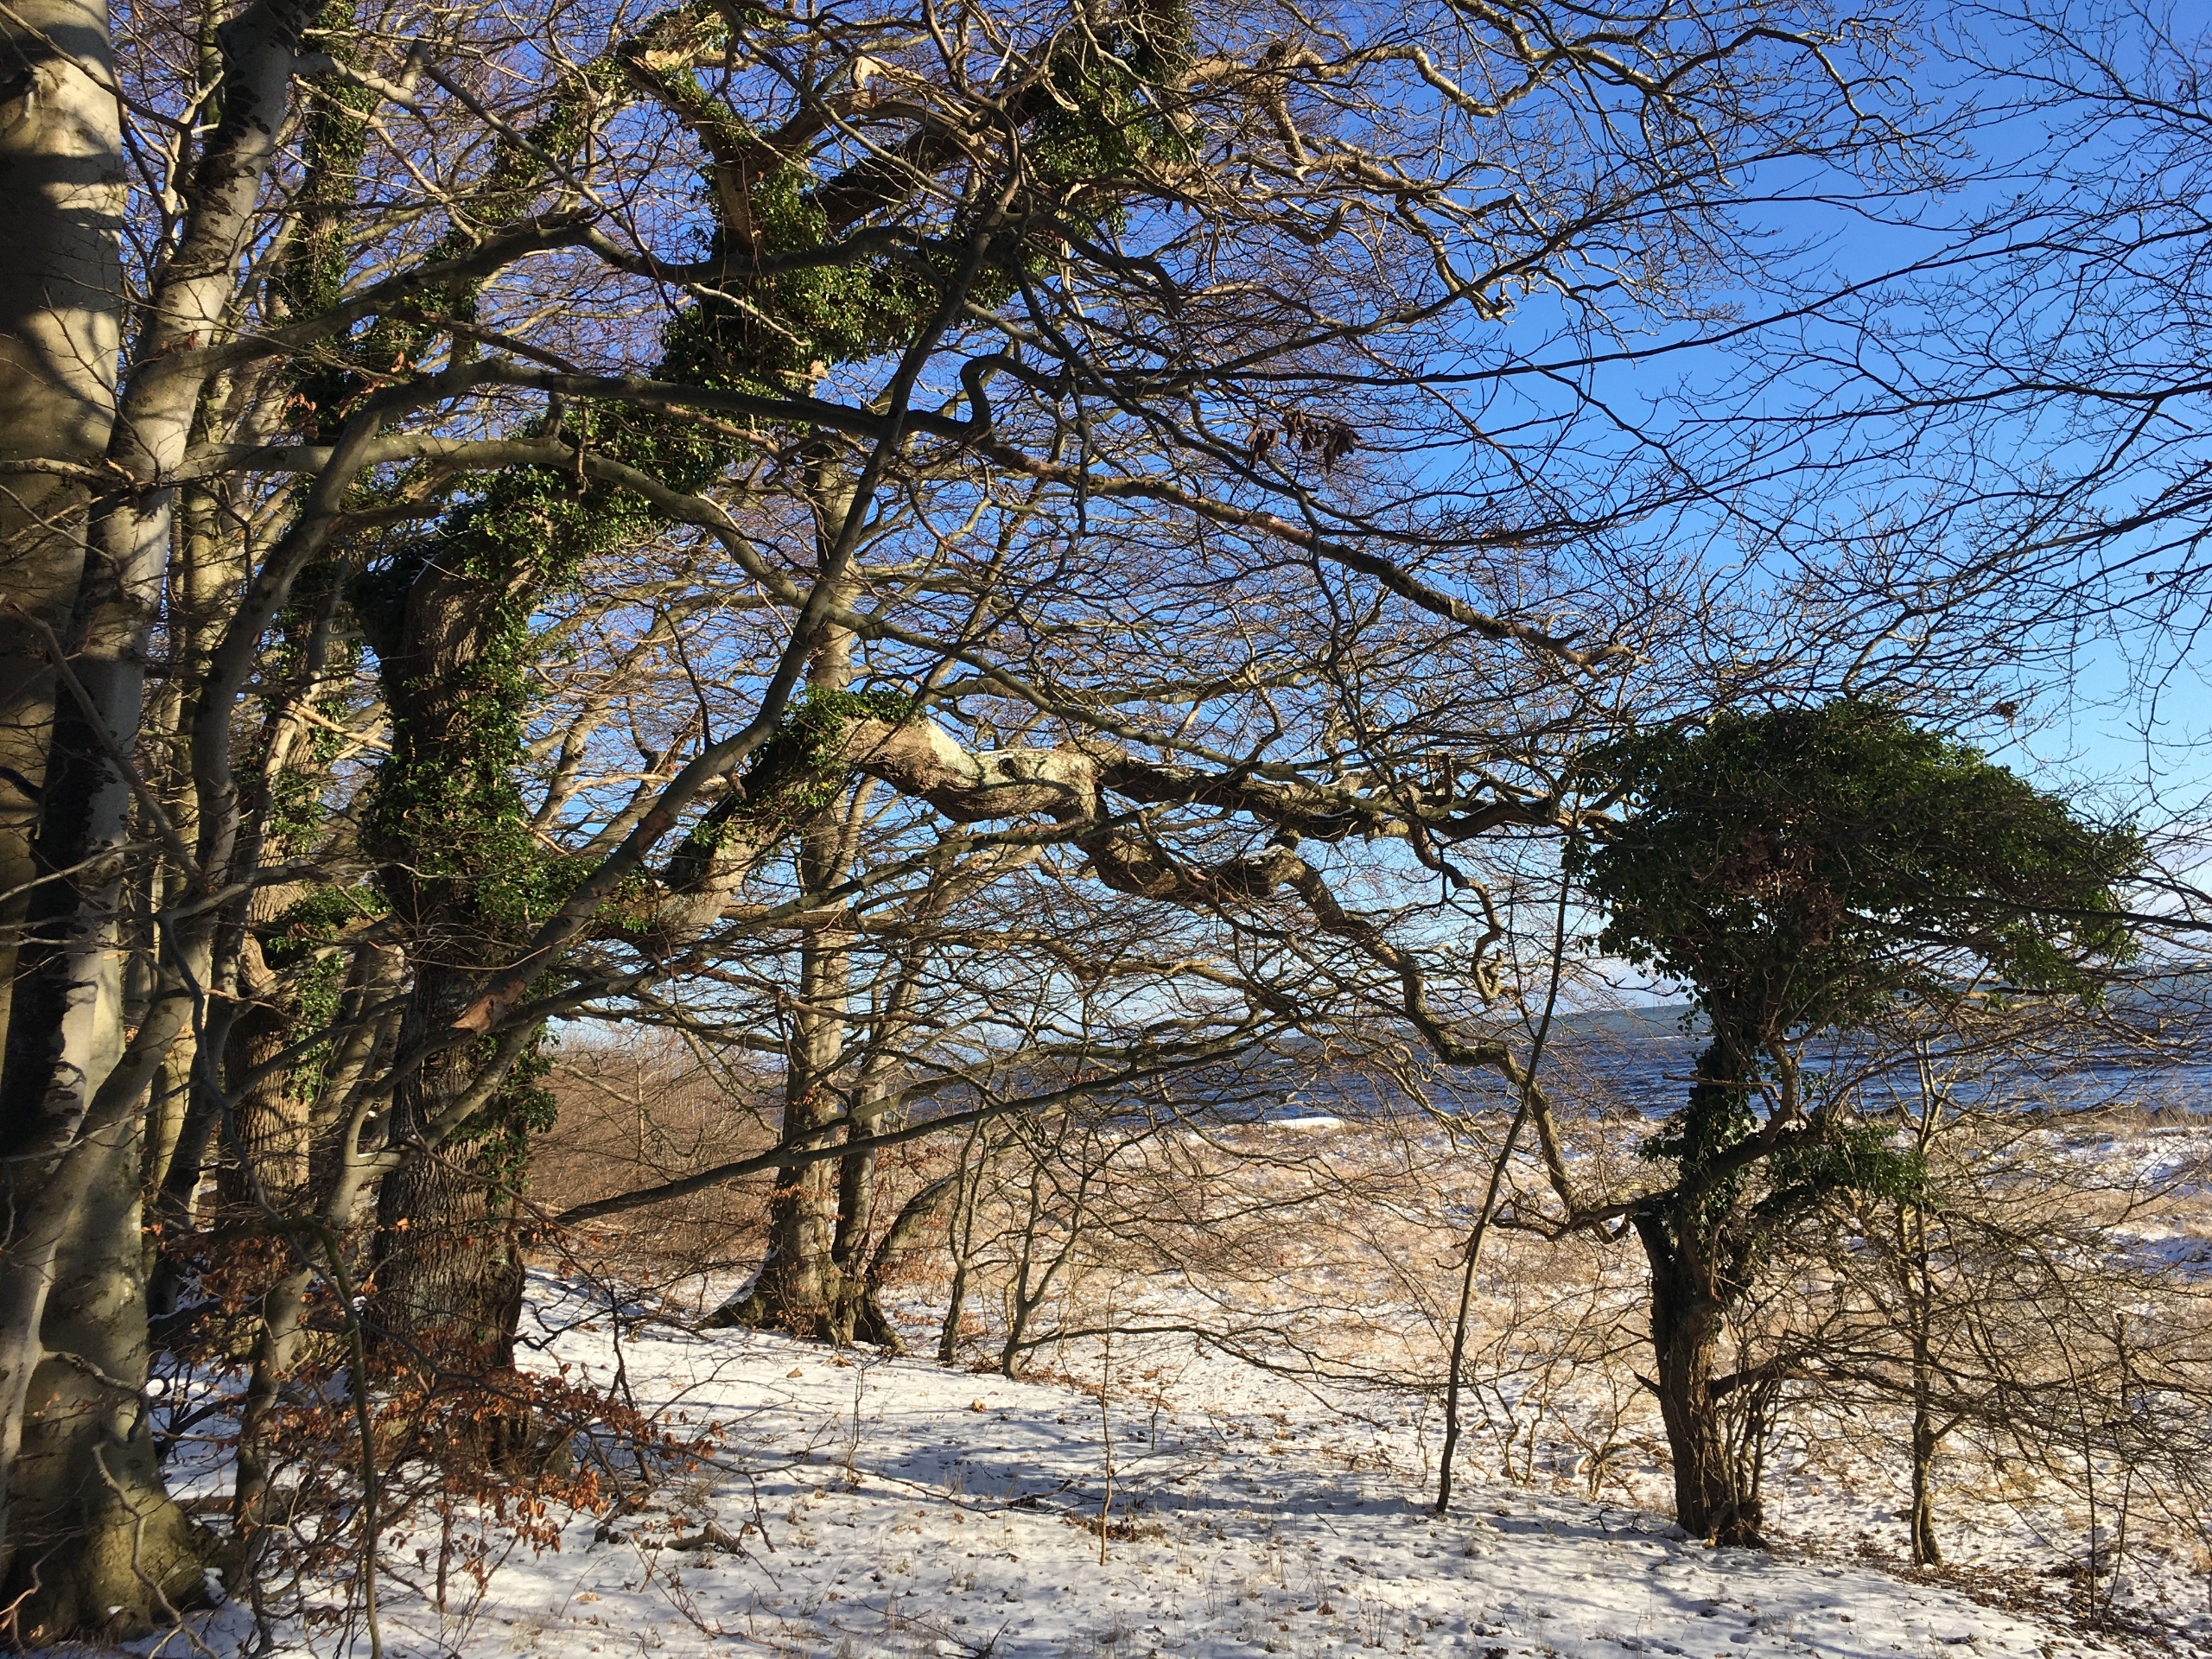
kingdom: Plantae
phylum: Tracheophyta
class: Magnoliopsida
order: Apiales
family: Araliaceae
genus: Hedera
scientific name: Hedera helix
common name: Vedbend
